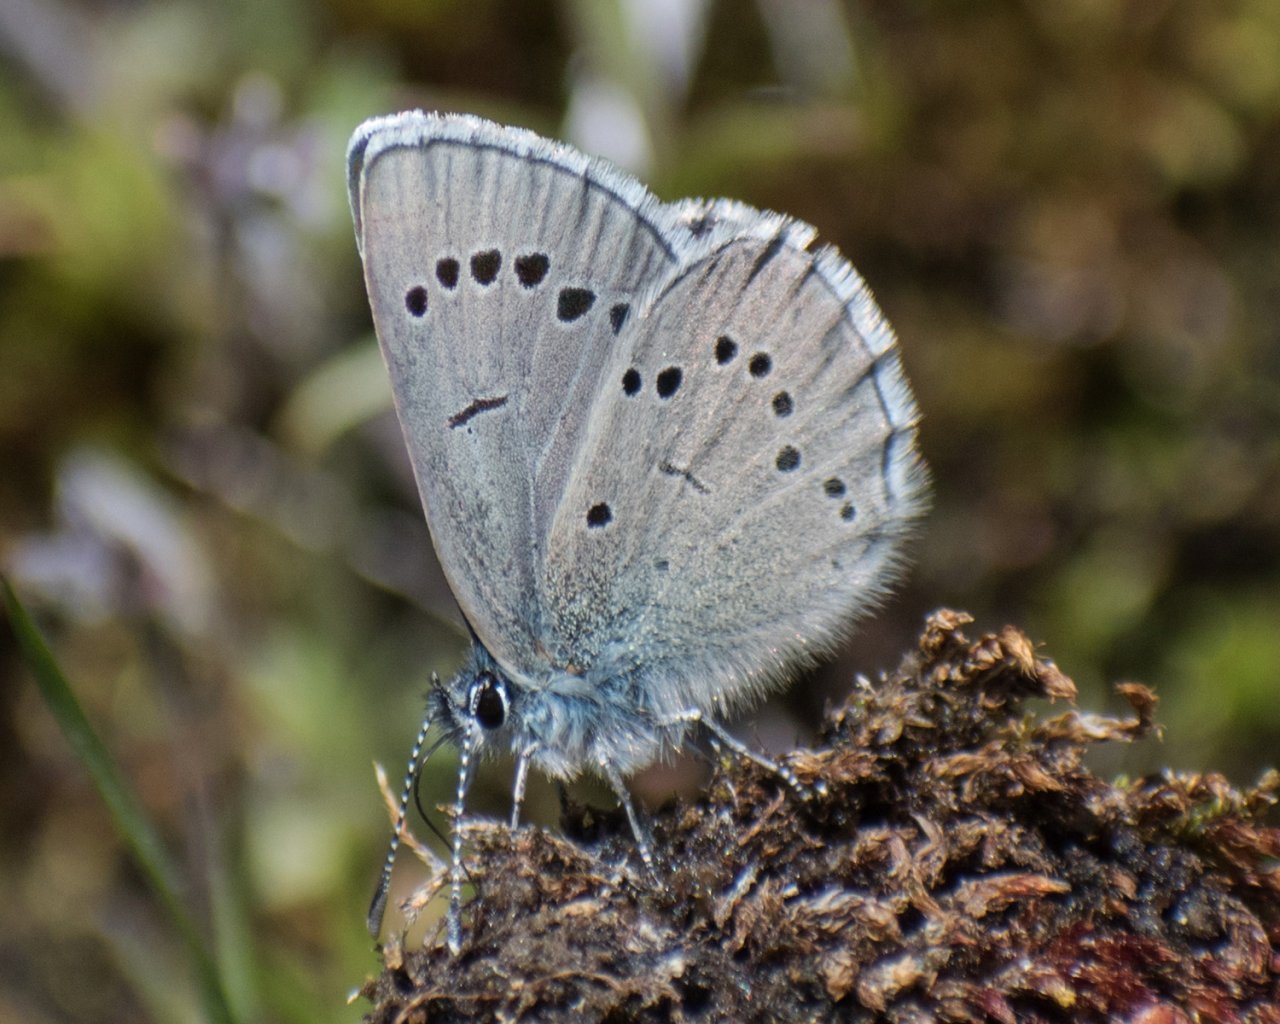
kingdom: Animalia
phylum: Arthropoda
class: Insecta
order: Lepidoptera
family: Lycaenidae
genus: Glaucopsyche
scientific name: Glaucopsyche lygdamus
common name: Silvery Blue
